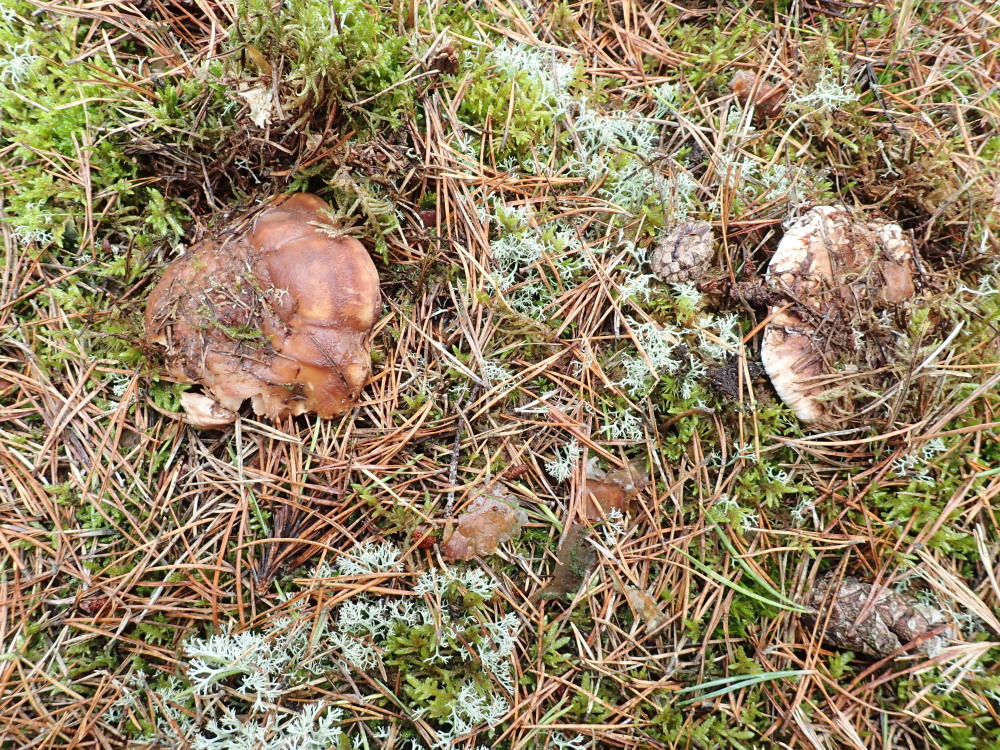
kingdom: Fungi
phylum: Basidiomycota
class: Agaricomycetes
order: Thelephorales
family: Thelephoraceae
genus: Phellodon
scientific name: Phellodon fuligineoalbus
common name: pjusket duftpigsvamp
